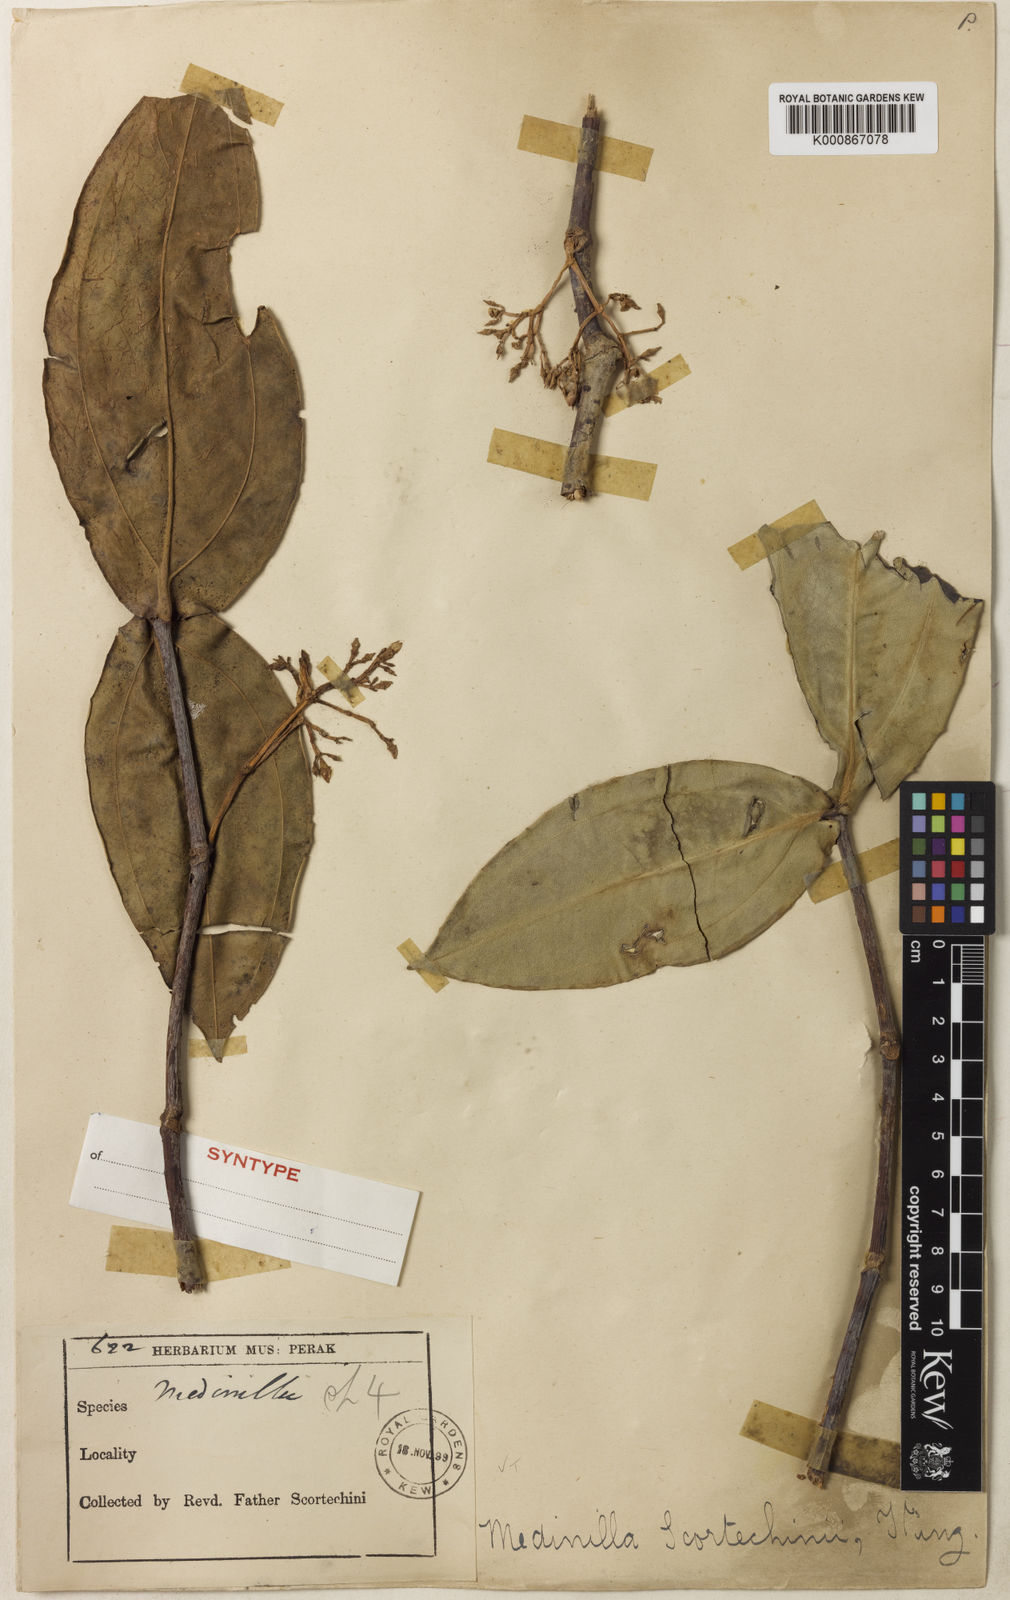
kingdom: Plantae
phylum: Tracheophyta
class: Magnoliopsida
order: Myrtales
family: Melastomataceae
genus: Medinilla
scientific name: Medinilla scortechinii
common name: Coral medinilla
